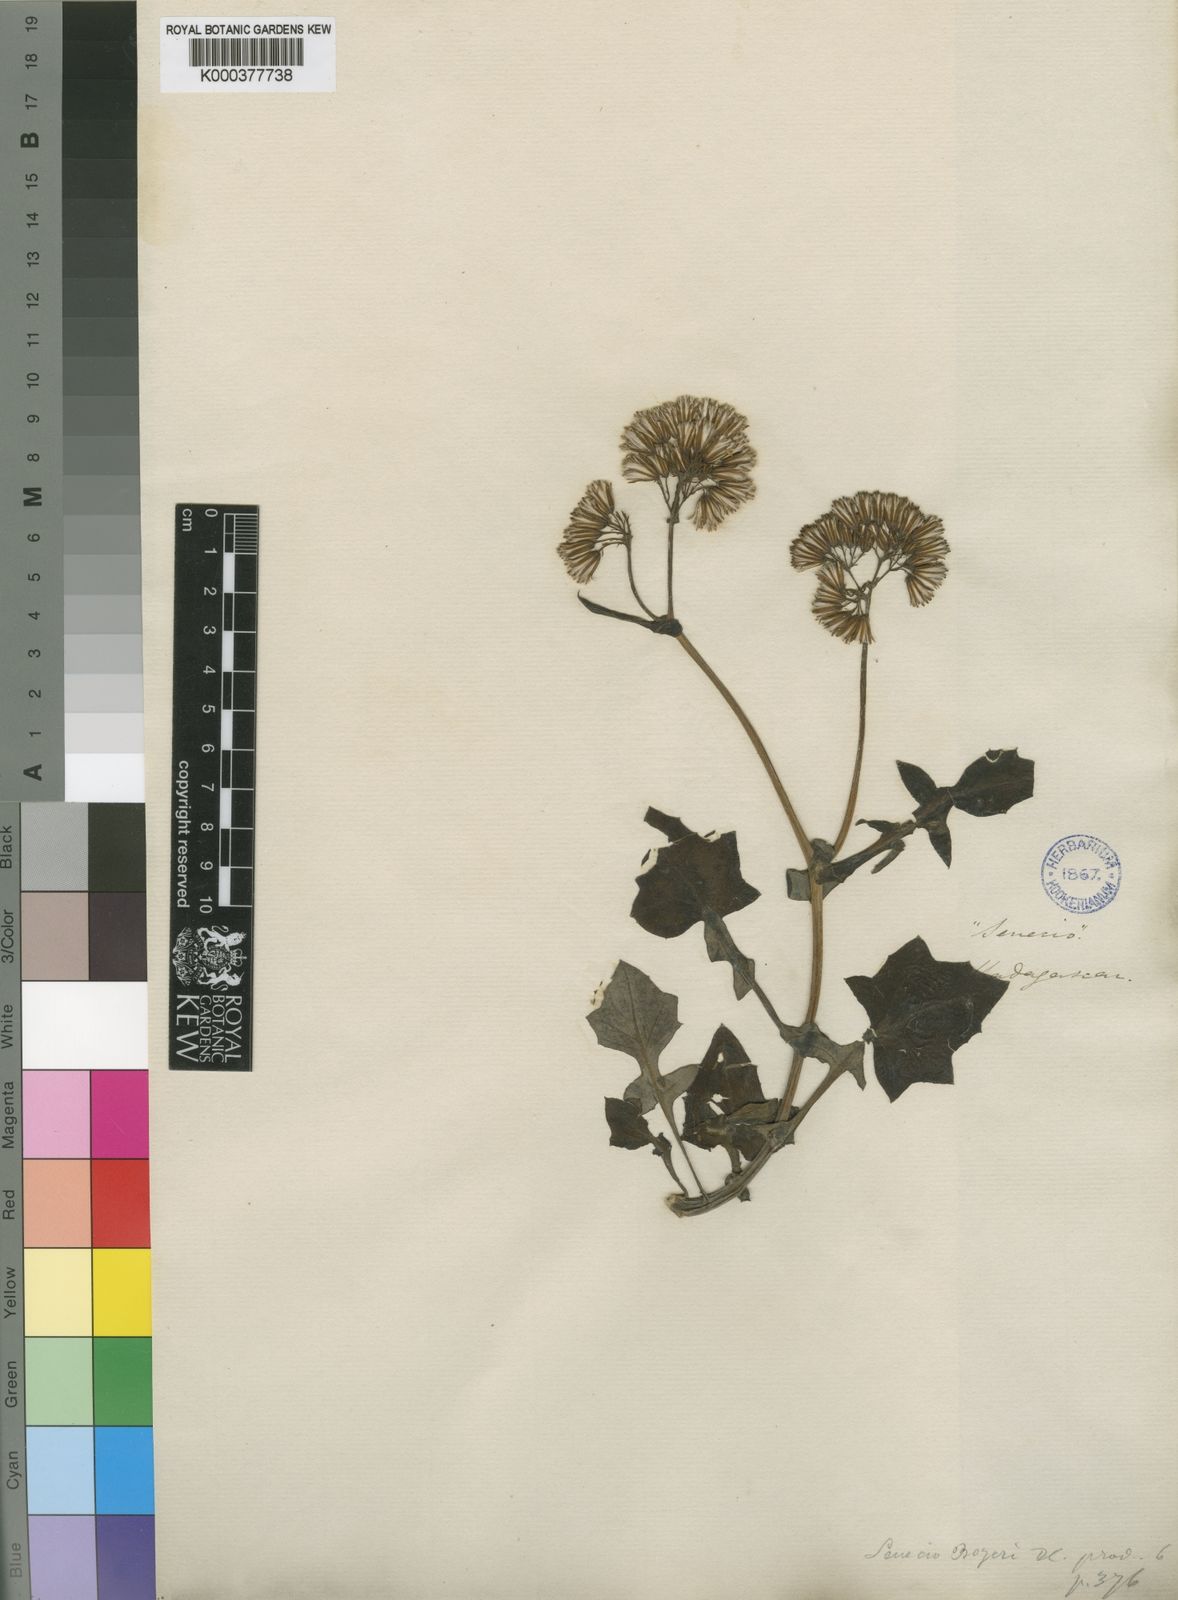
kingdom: Plantae
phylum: Tracheophyta
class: Magnoliopsida
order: Asterales
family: Asteraceae
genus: Solanecio
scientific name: Solanecio angulatus
